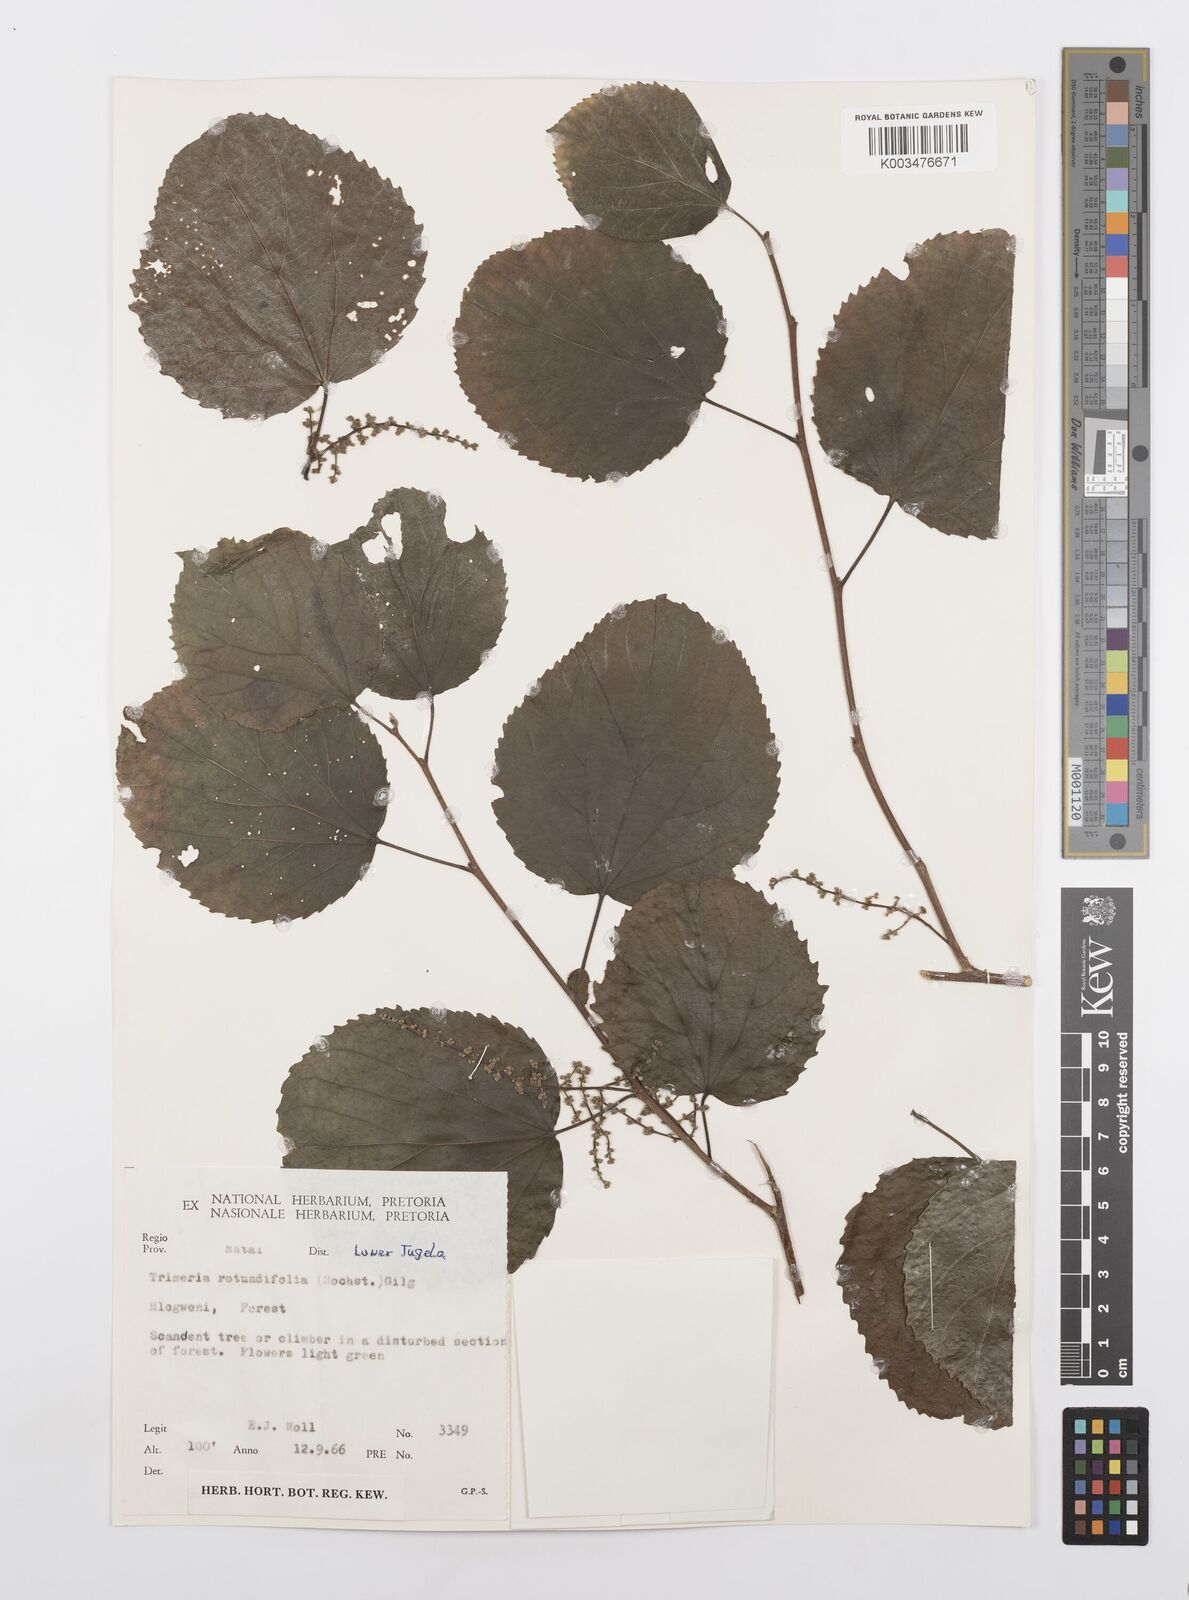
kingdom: Plantae
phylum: Tracheophyta
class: Magnoliopsida
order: Malpighiales
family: Salicaceae
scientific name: Salicaceae
